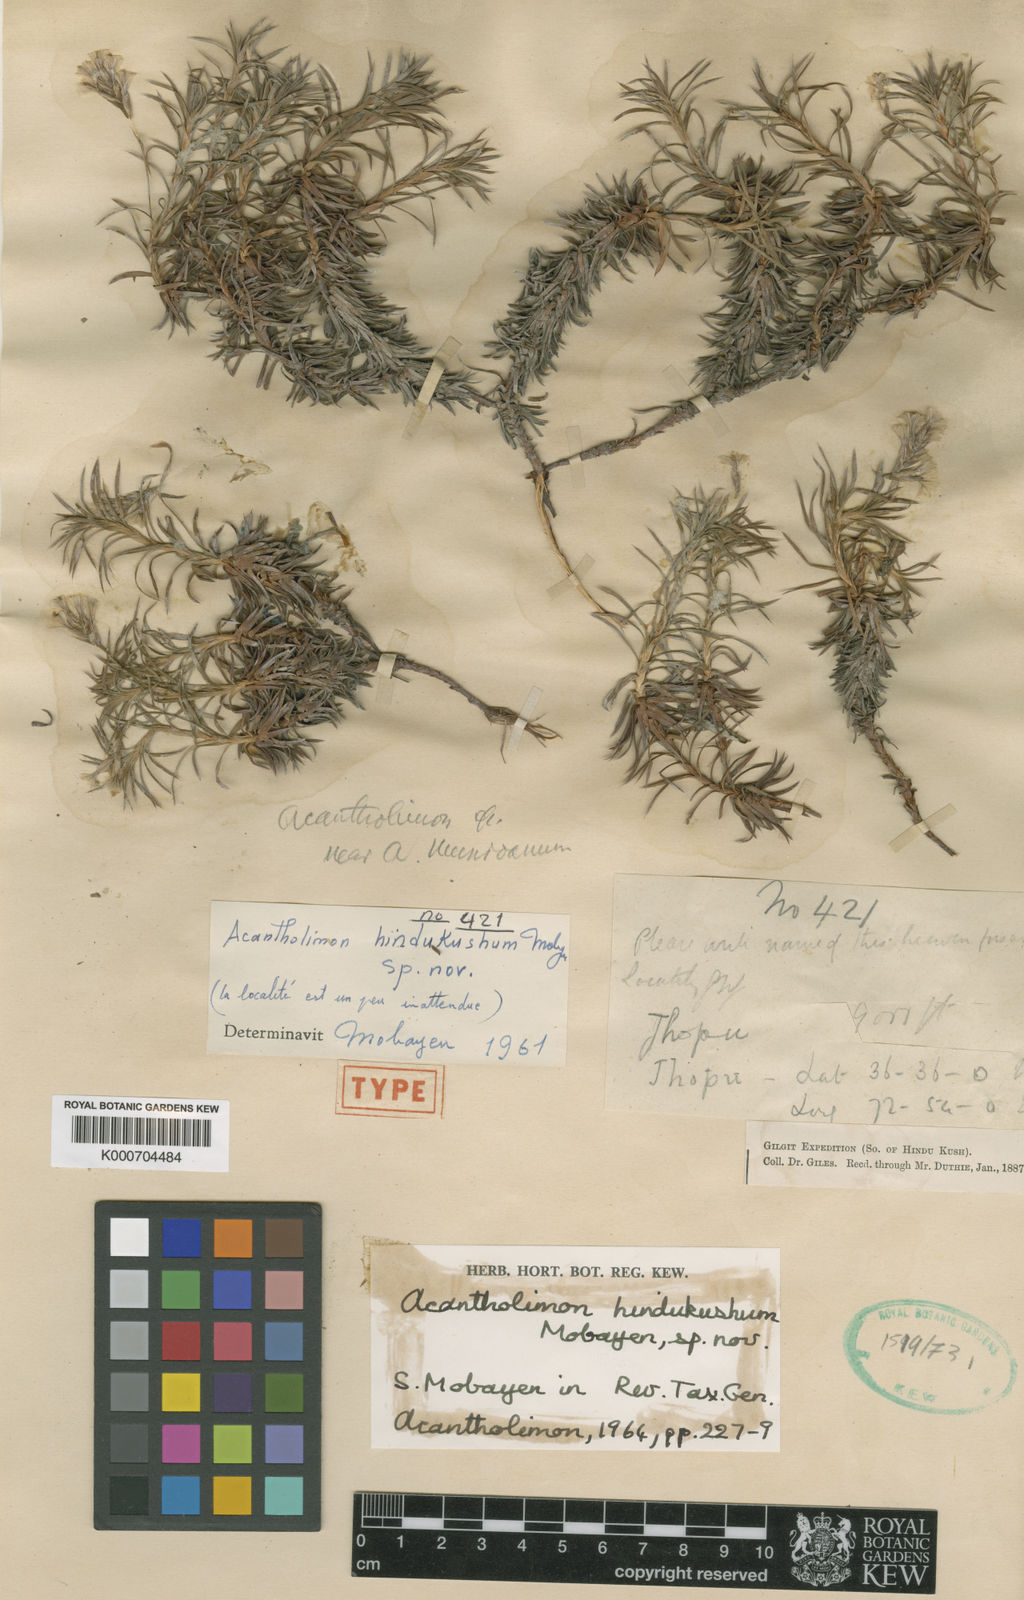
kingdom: Plantae
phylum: Tracheophyta
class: Magnoliopsida
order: Caryophyllales
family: Plumbaginaceae
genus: Acantholimon
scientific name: Acantholimon hindukushum
